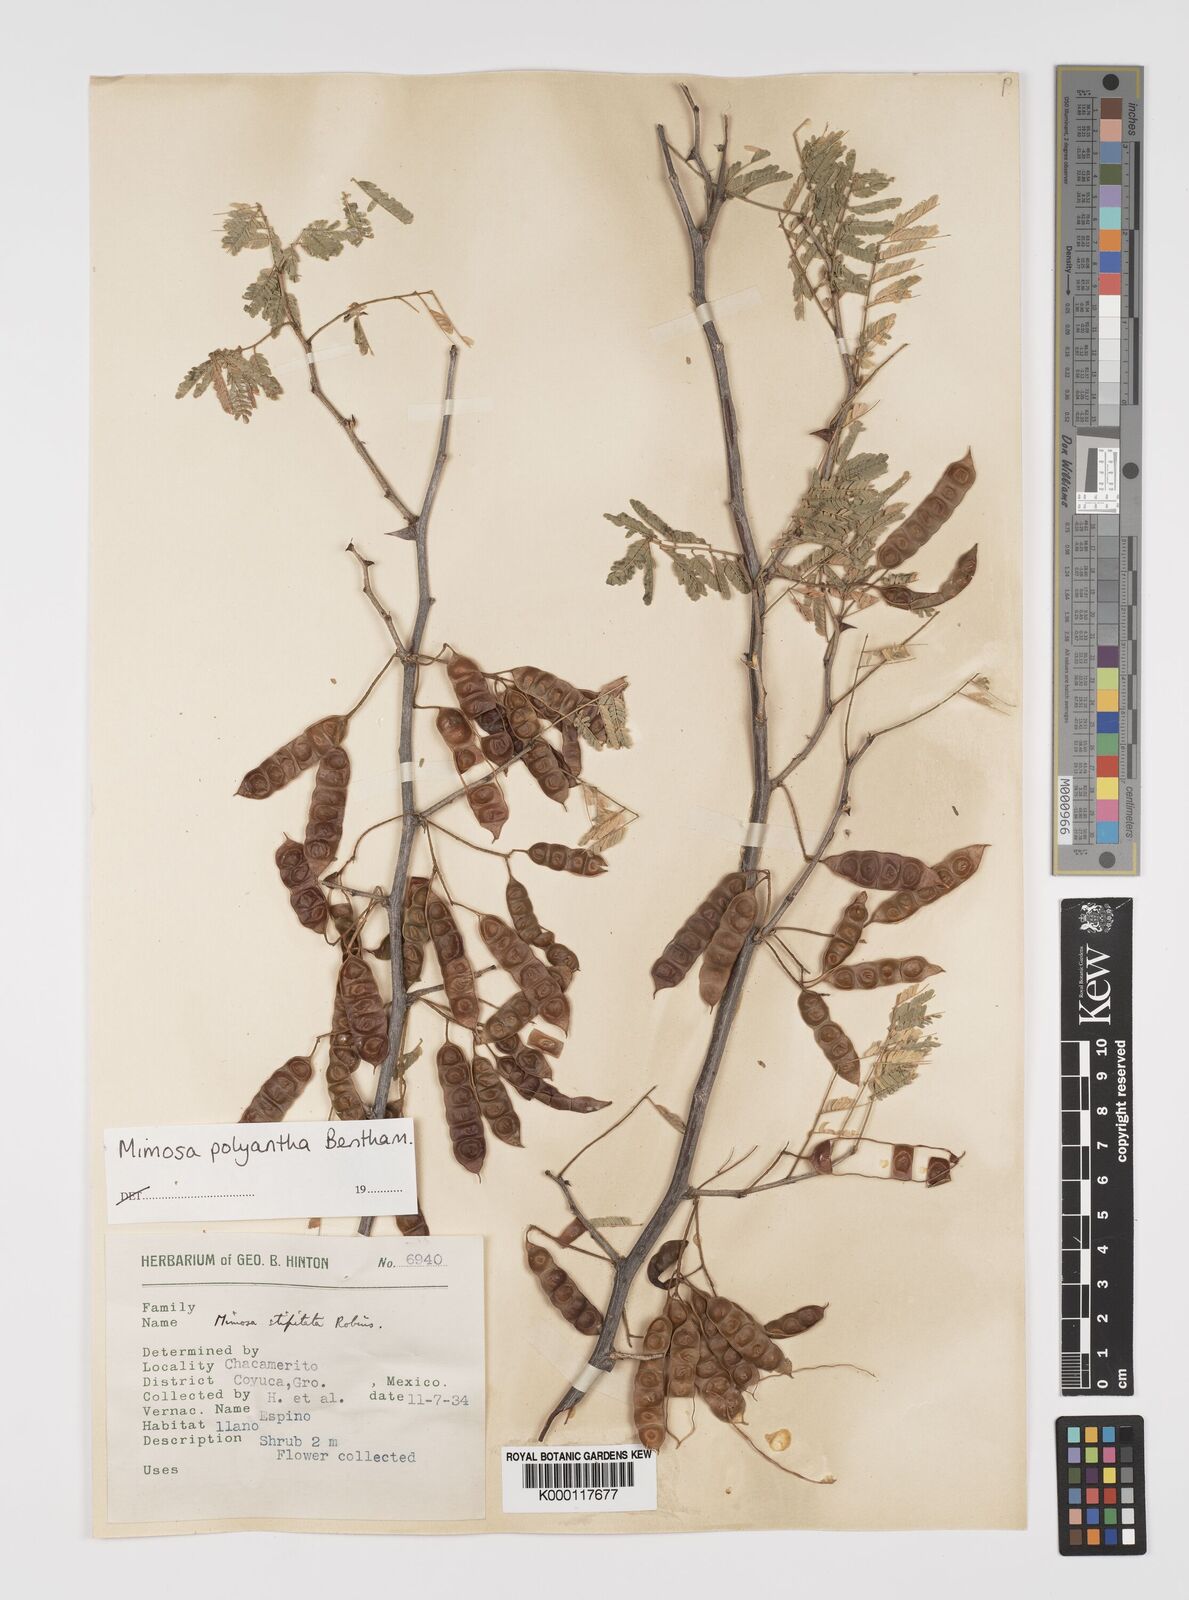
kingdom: Plantae
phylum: Tracheophyta
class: Magnoliopsida
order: Fabales
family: Fabaceae
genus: Mimosa
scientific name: Mimosa polyantha
